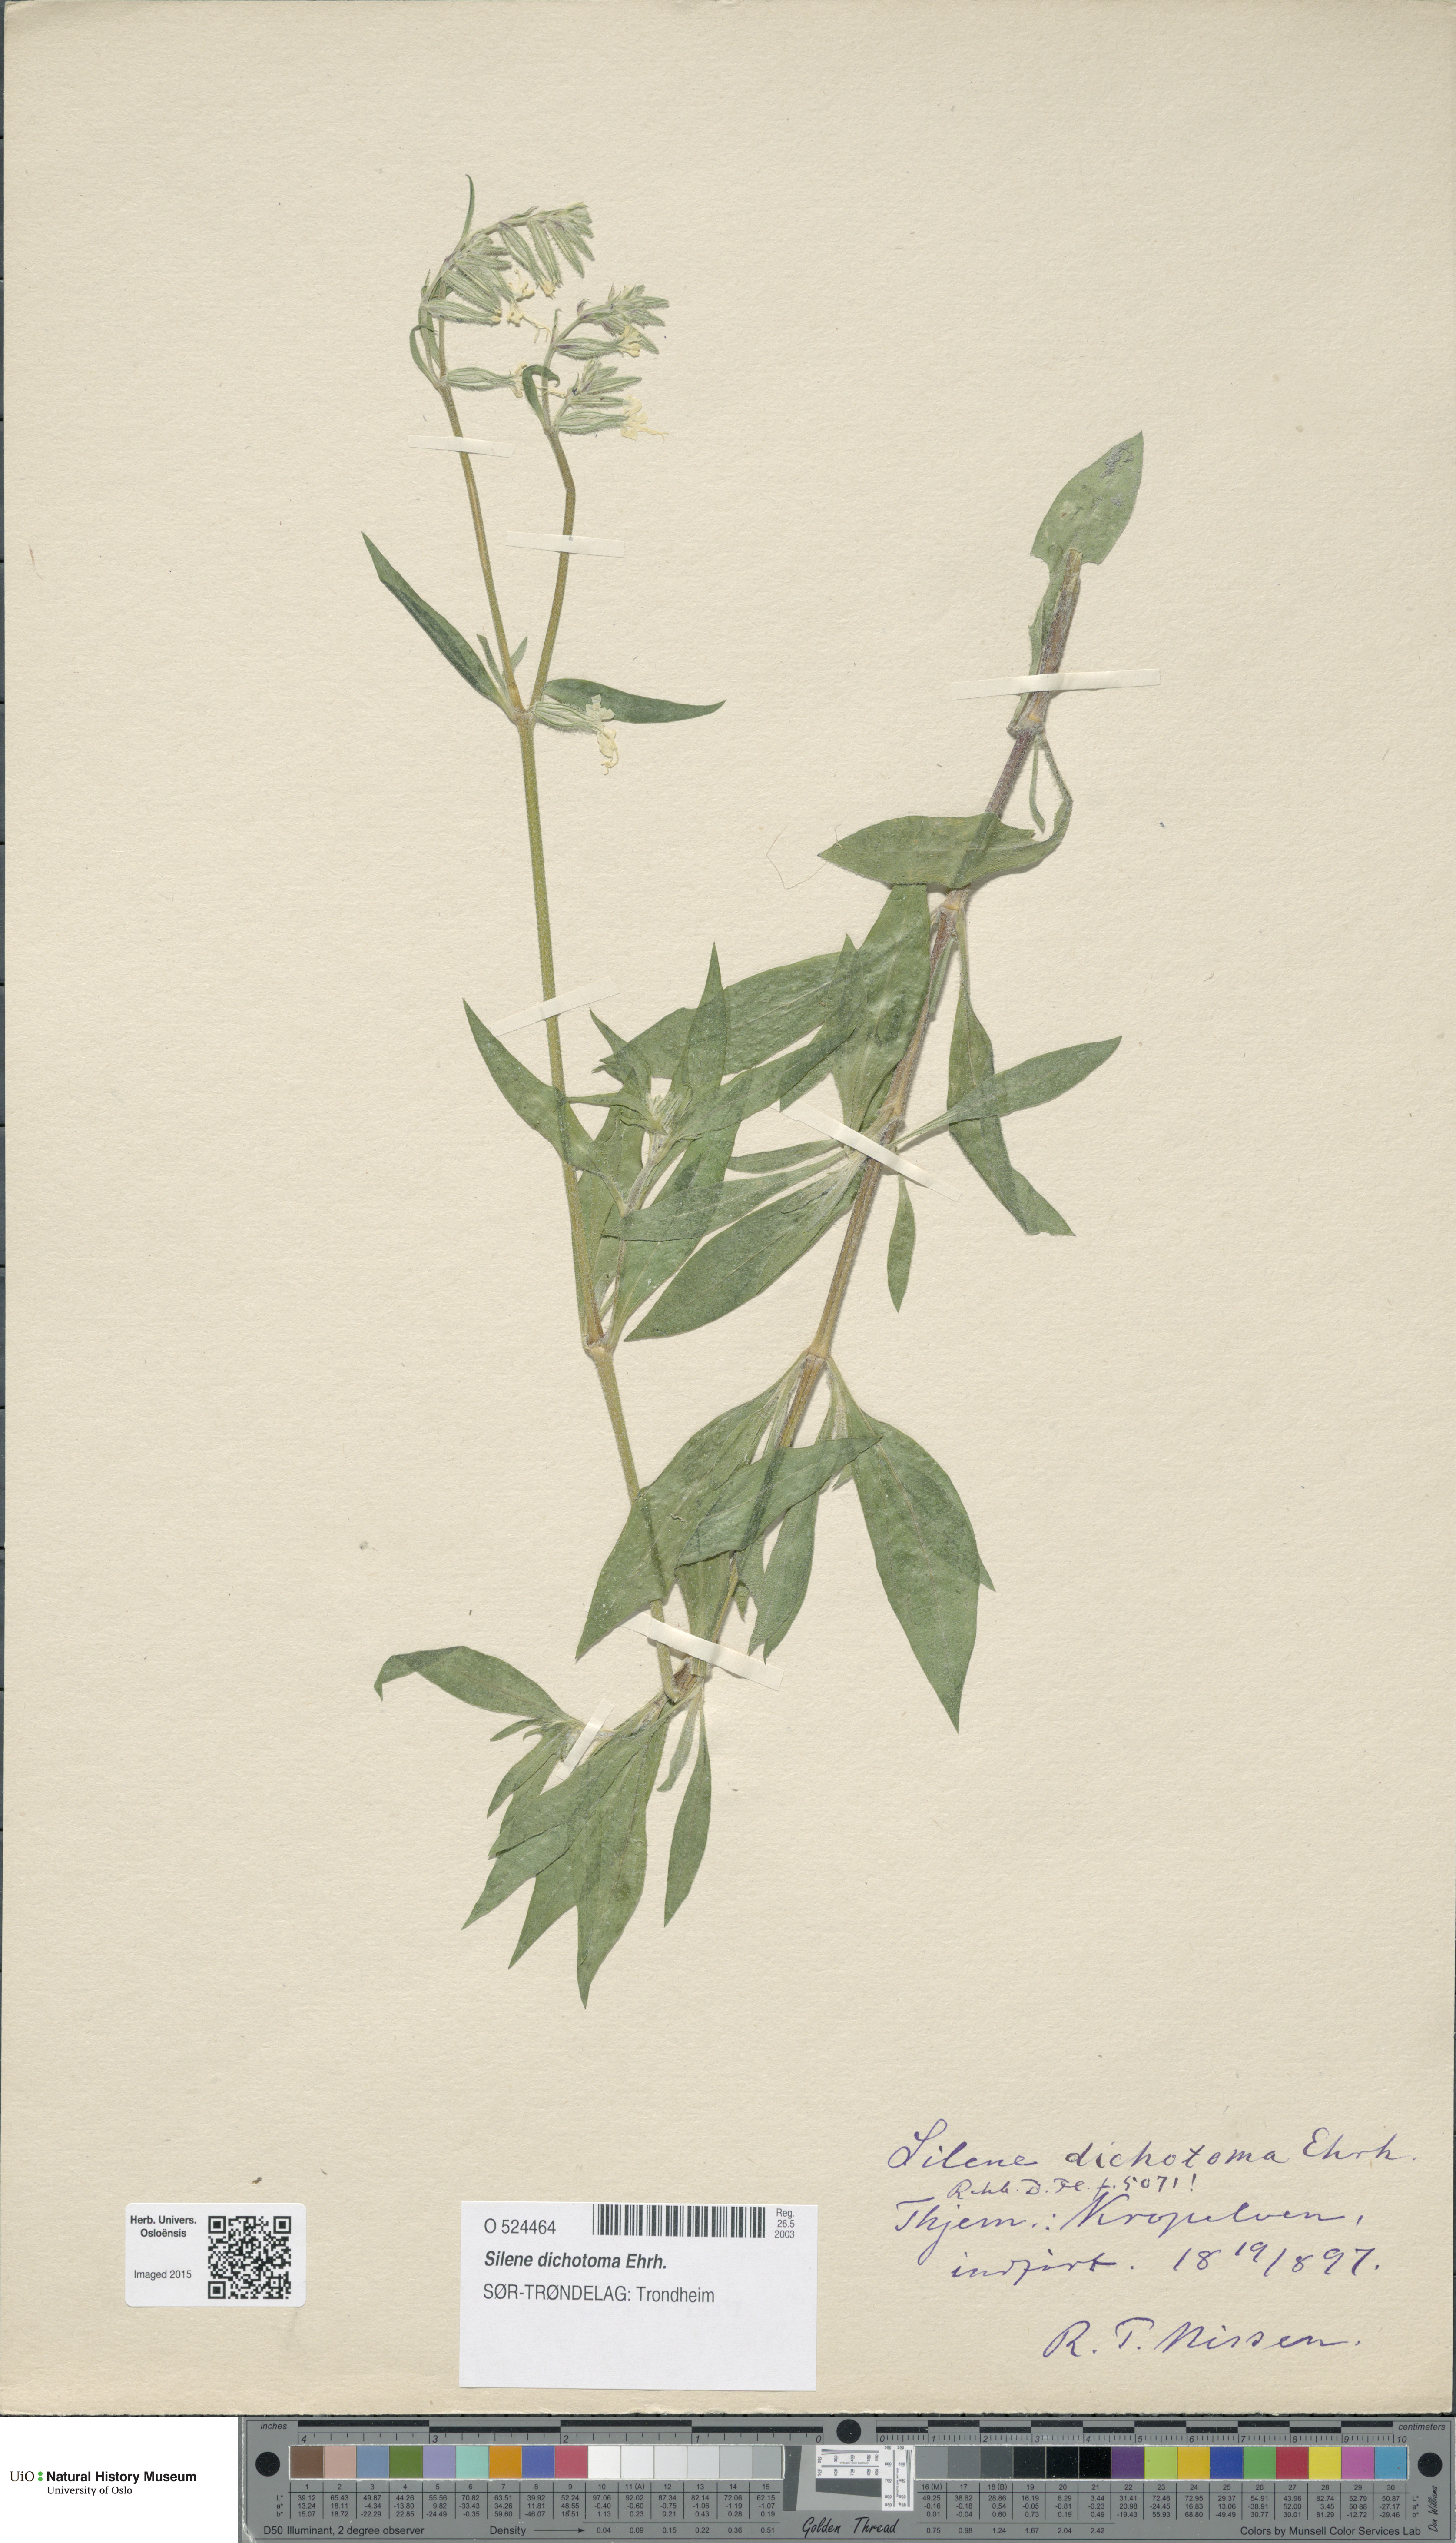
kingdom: Plantae
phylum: Tracheophyta
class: Magnoliopsida
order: Caryophyllales
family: Caryophyllaceae
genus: Silene
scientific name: Silene dichotoma
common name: Forked catchfly
